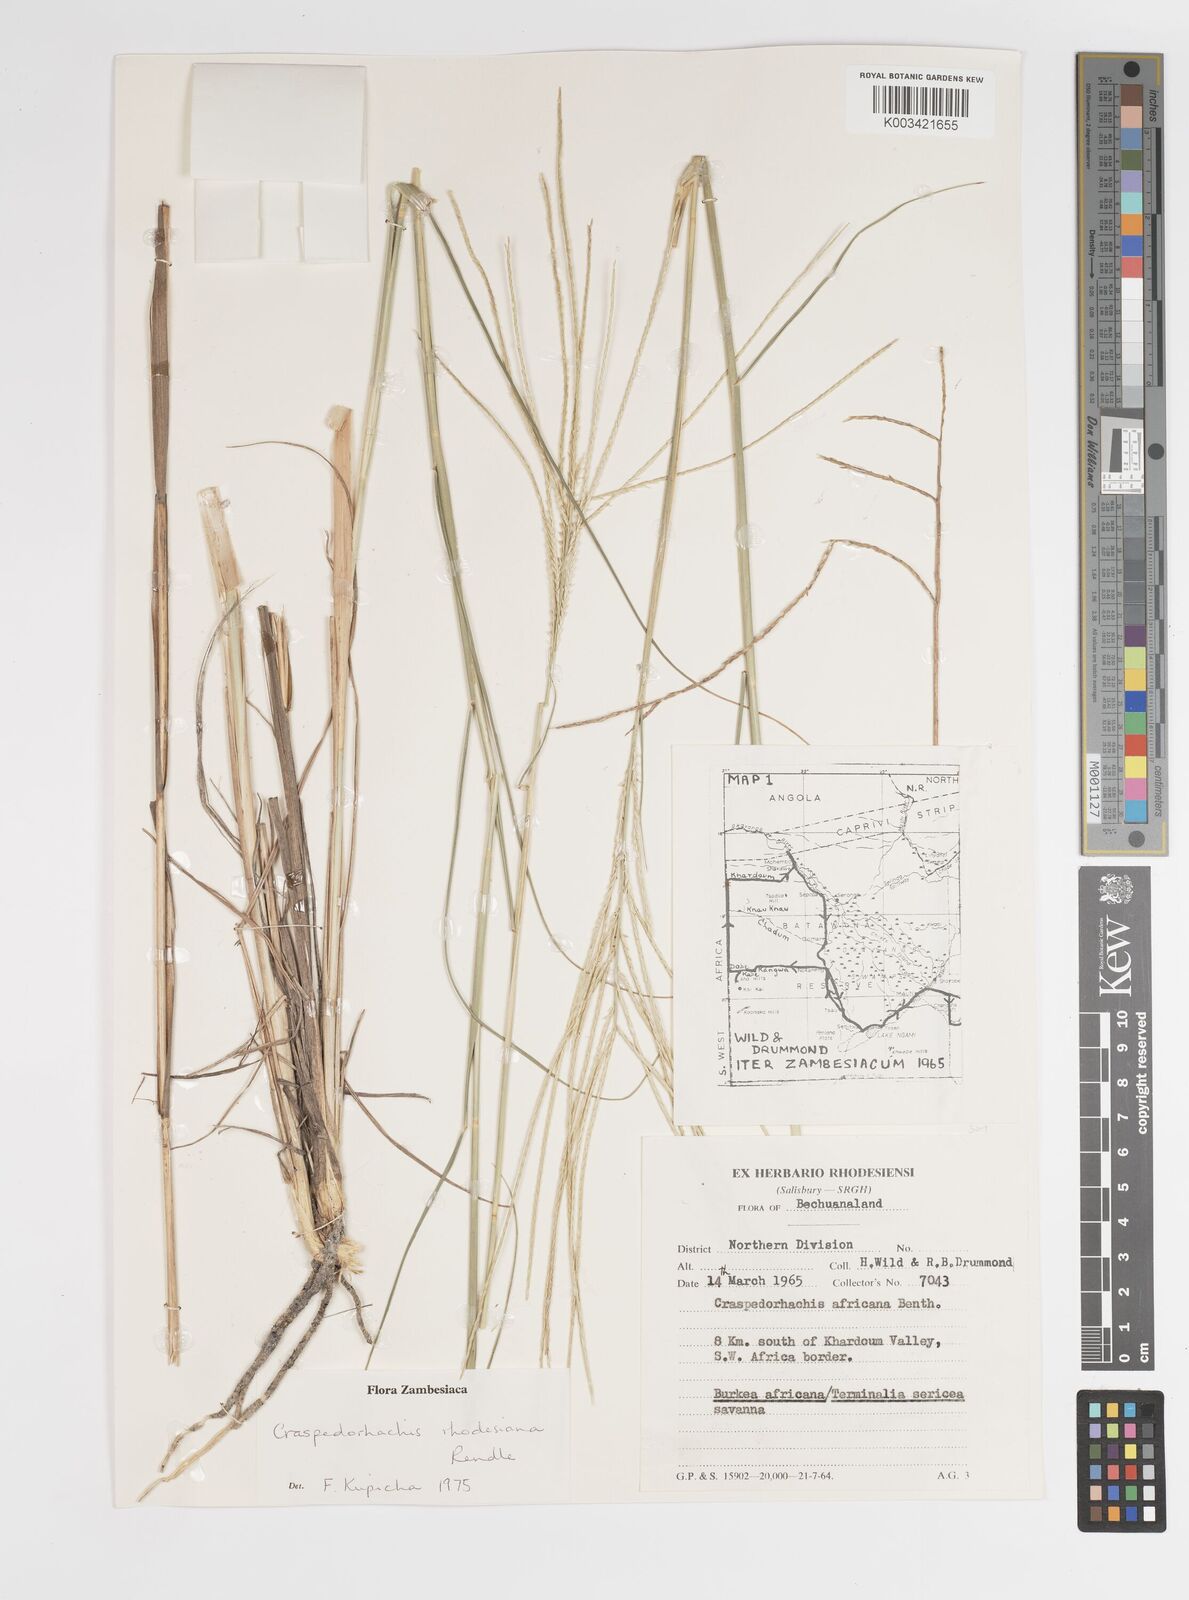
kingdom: Plantae
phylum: Tracheophyta
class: Liliopsida
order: Poales
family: Poaceae
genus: Craspedorhachis
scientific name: Craspedorhachis rhodesiana
